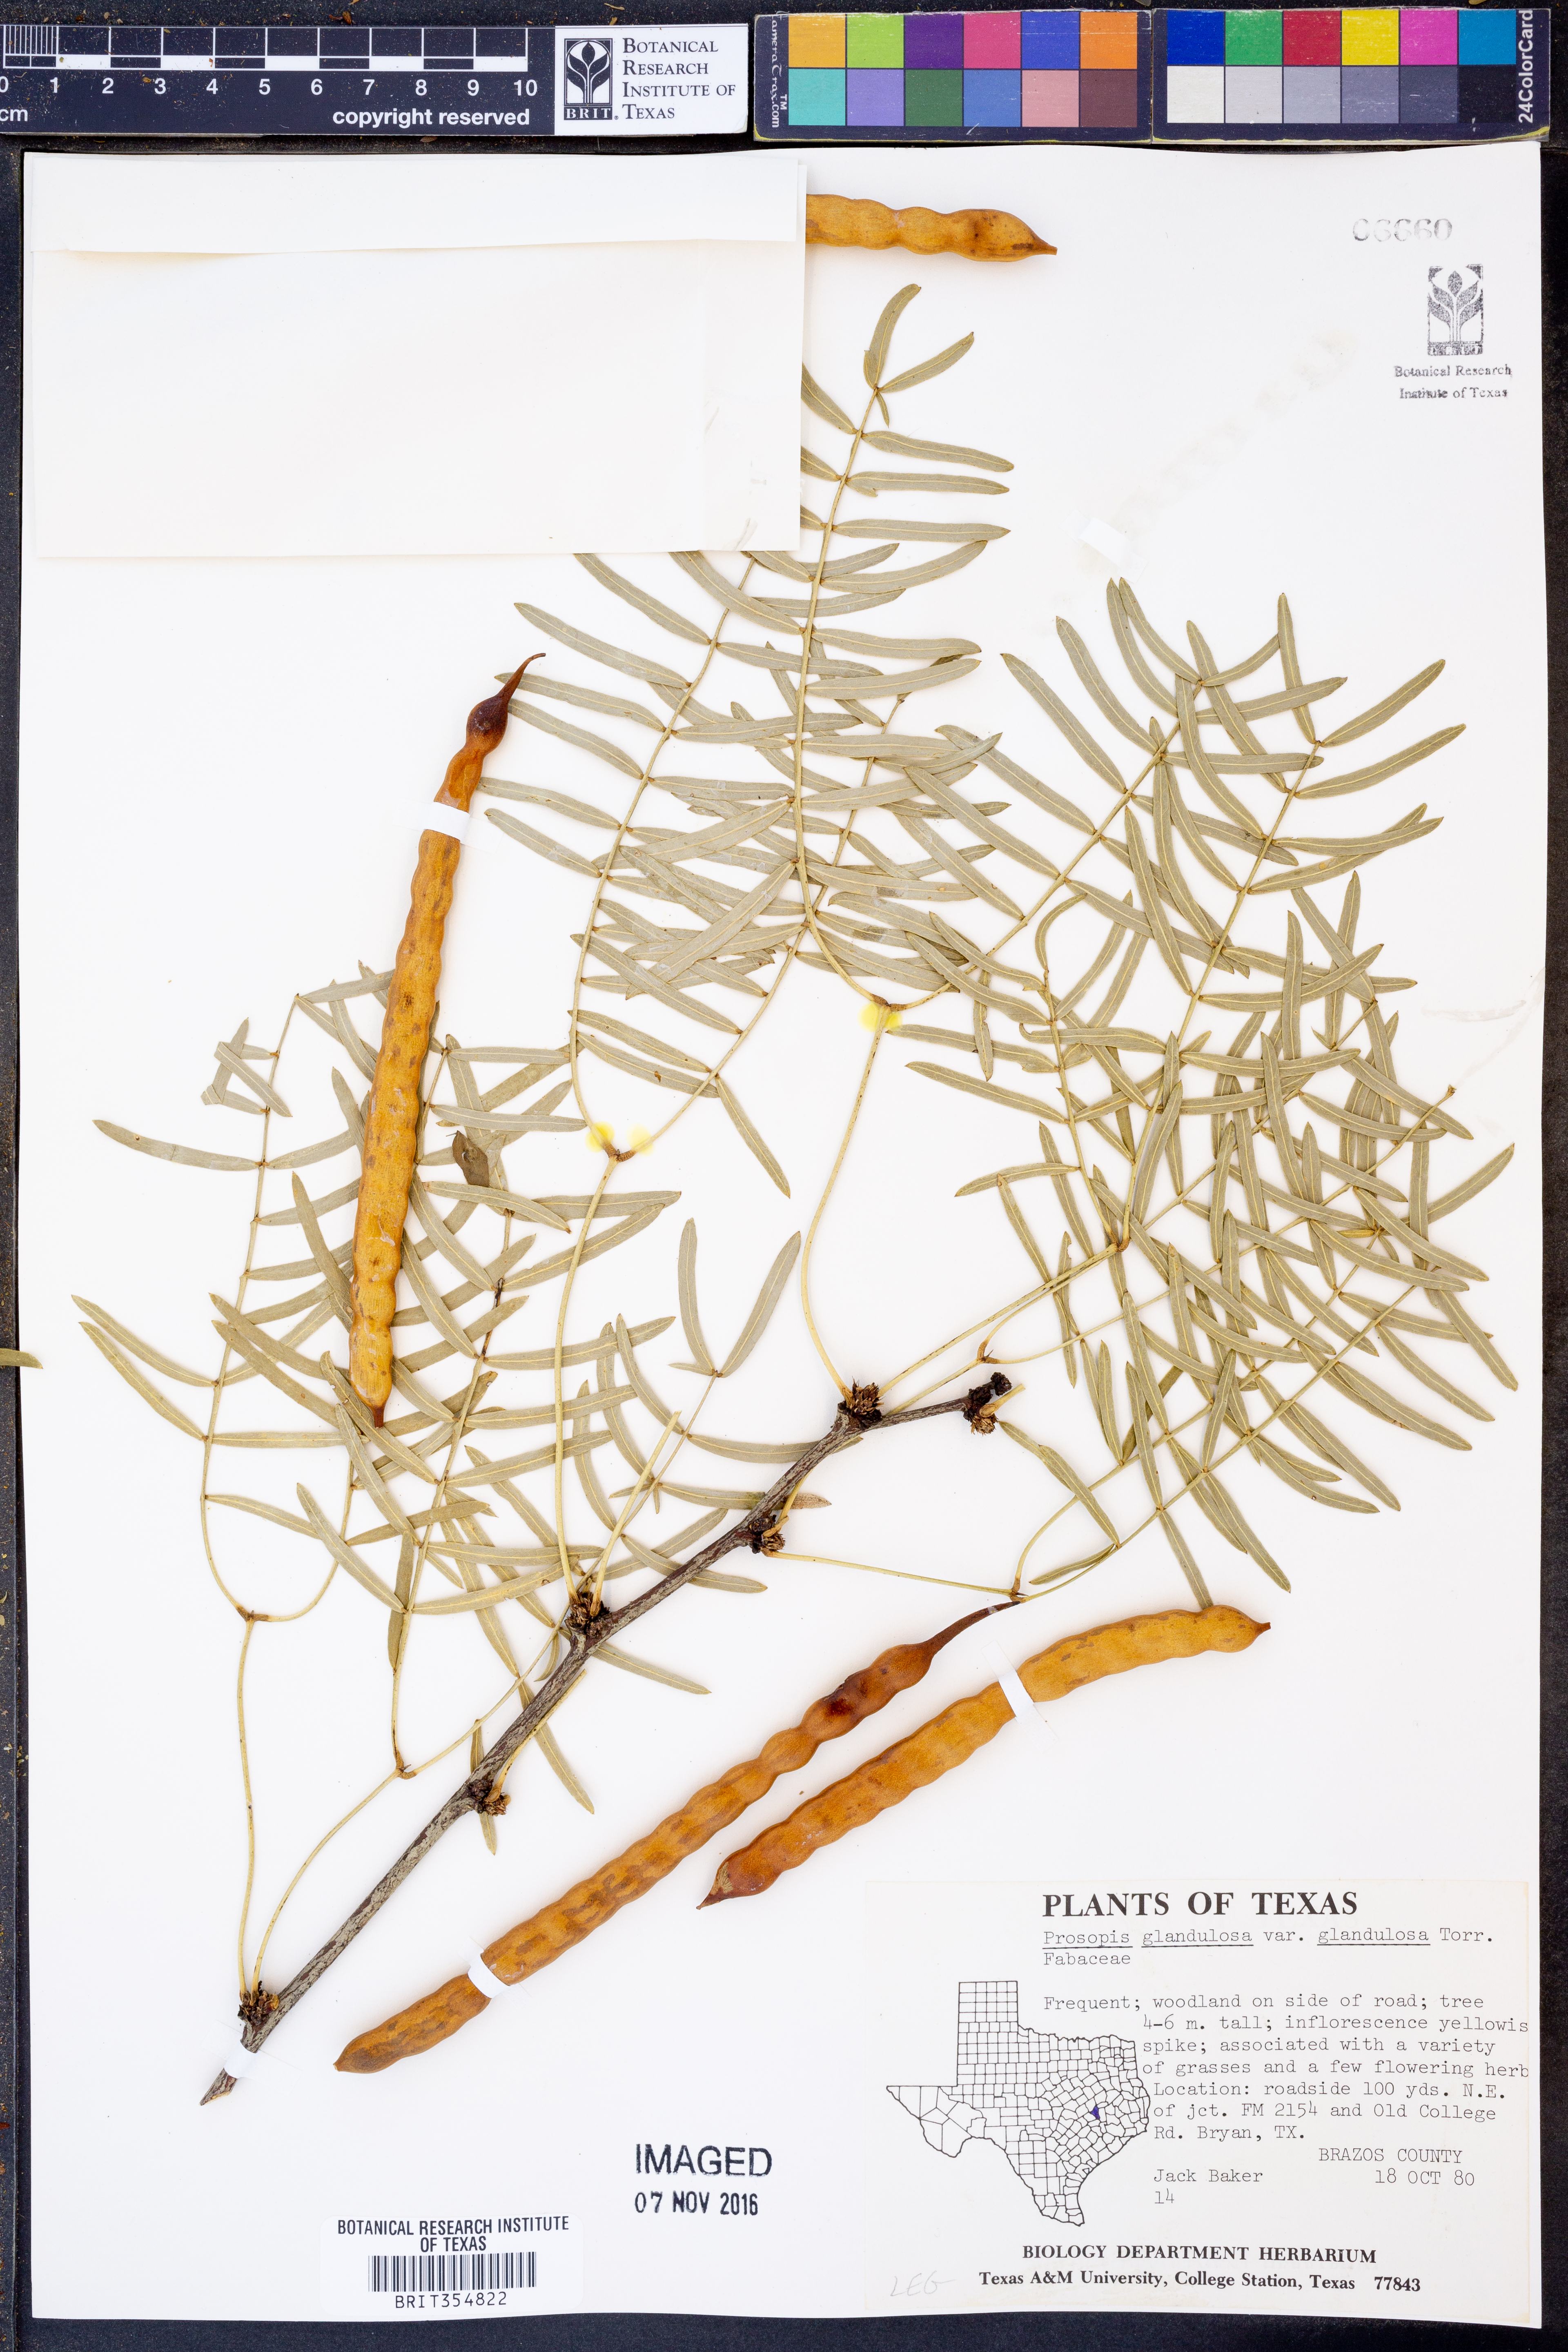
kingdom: Plantae
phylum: Tracheophyta
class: Magnoliopsida
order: Fabales
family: Fabaceae
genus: Prosopis
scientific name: Prosopis glandulosa
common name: Honey mesquite
